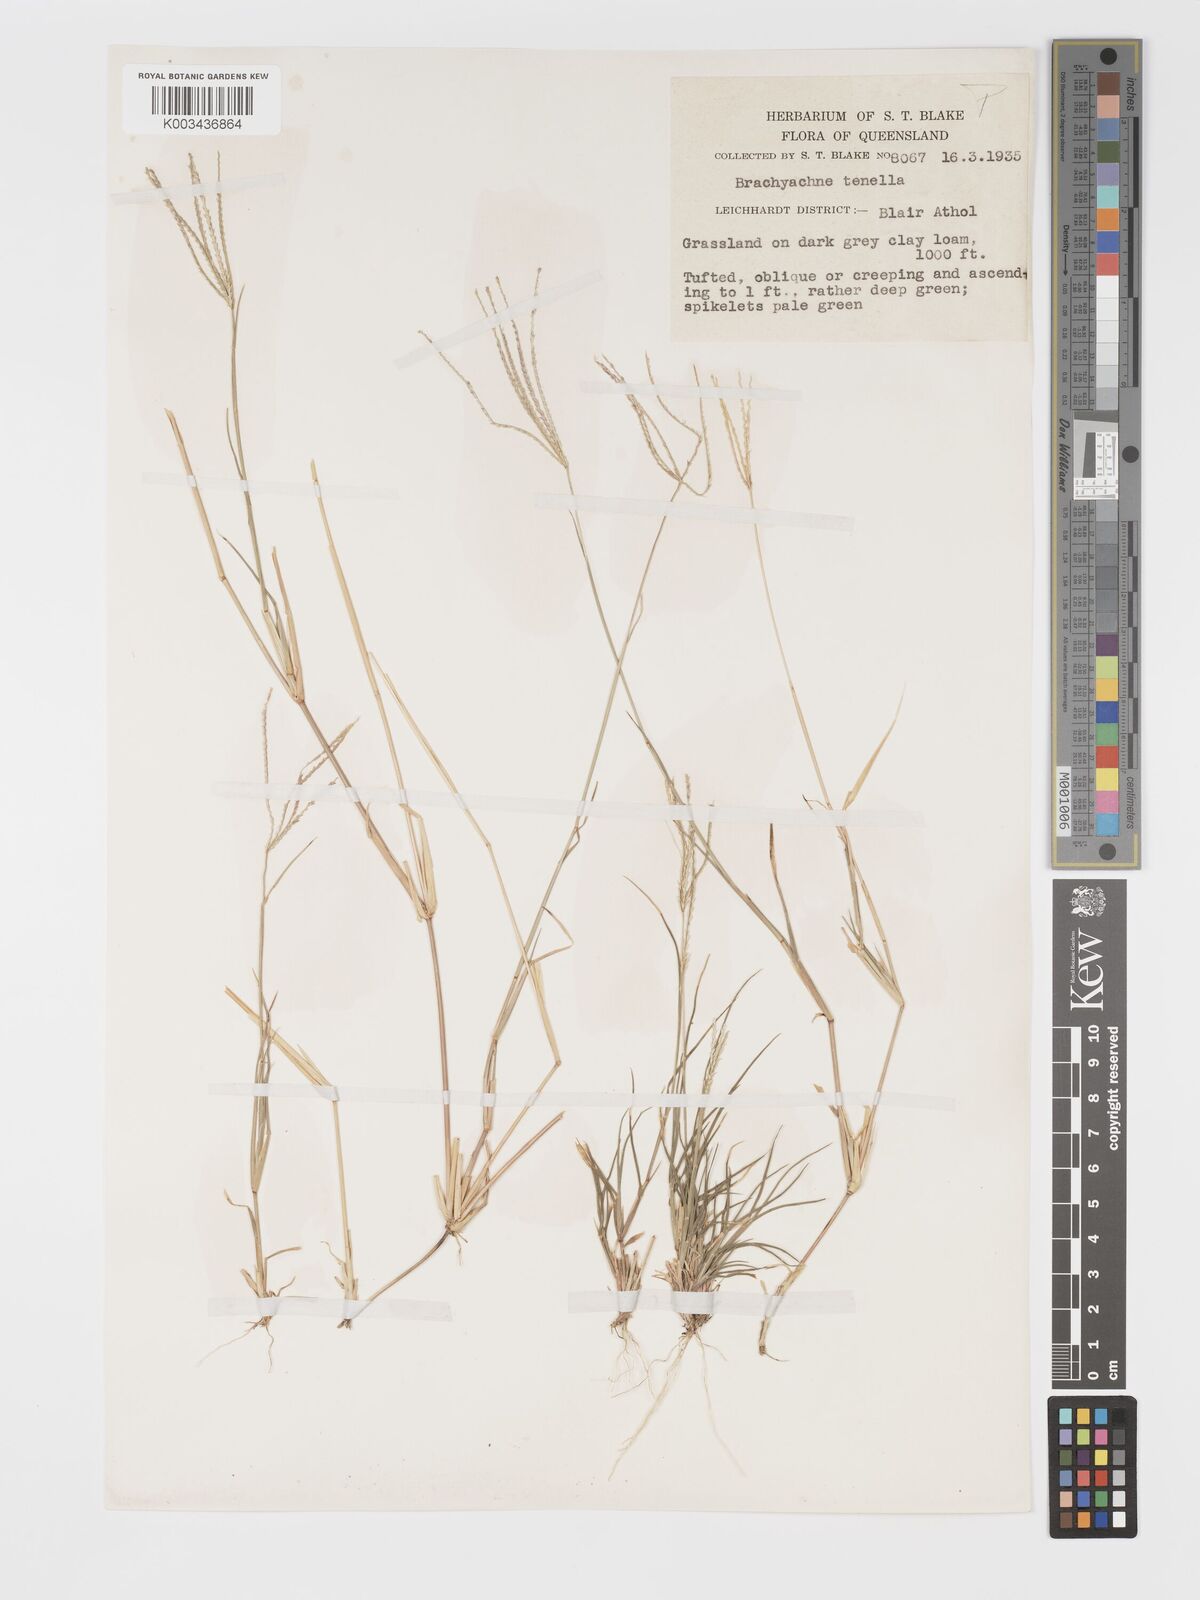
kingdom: Plantae
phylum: Tracheophyta
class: Liliopsida
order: Poales
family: Poaceae
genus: Cynodon
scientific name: Cynodon tenellus
